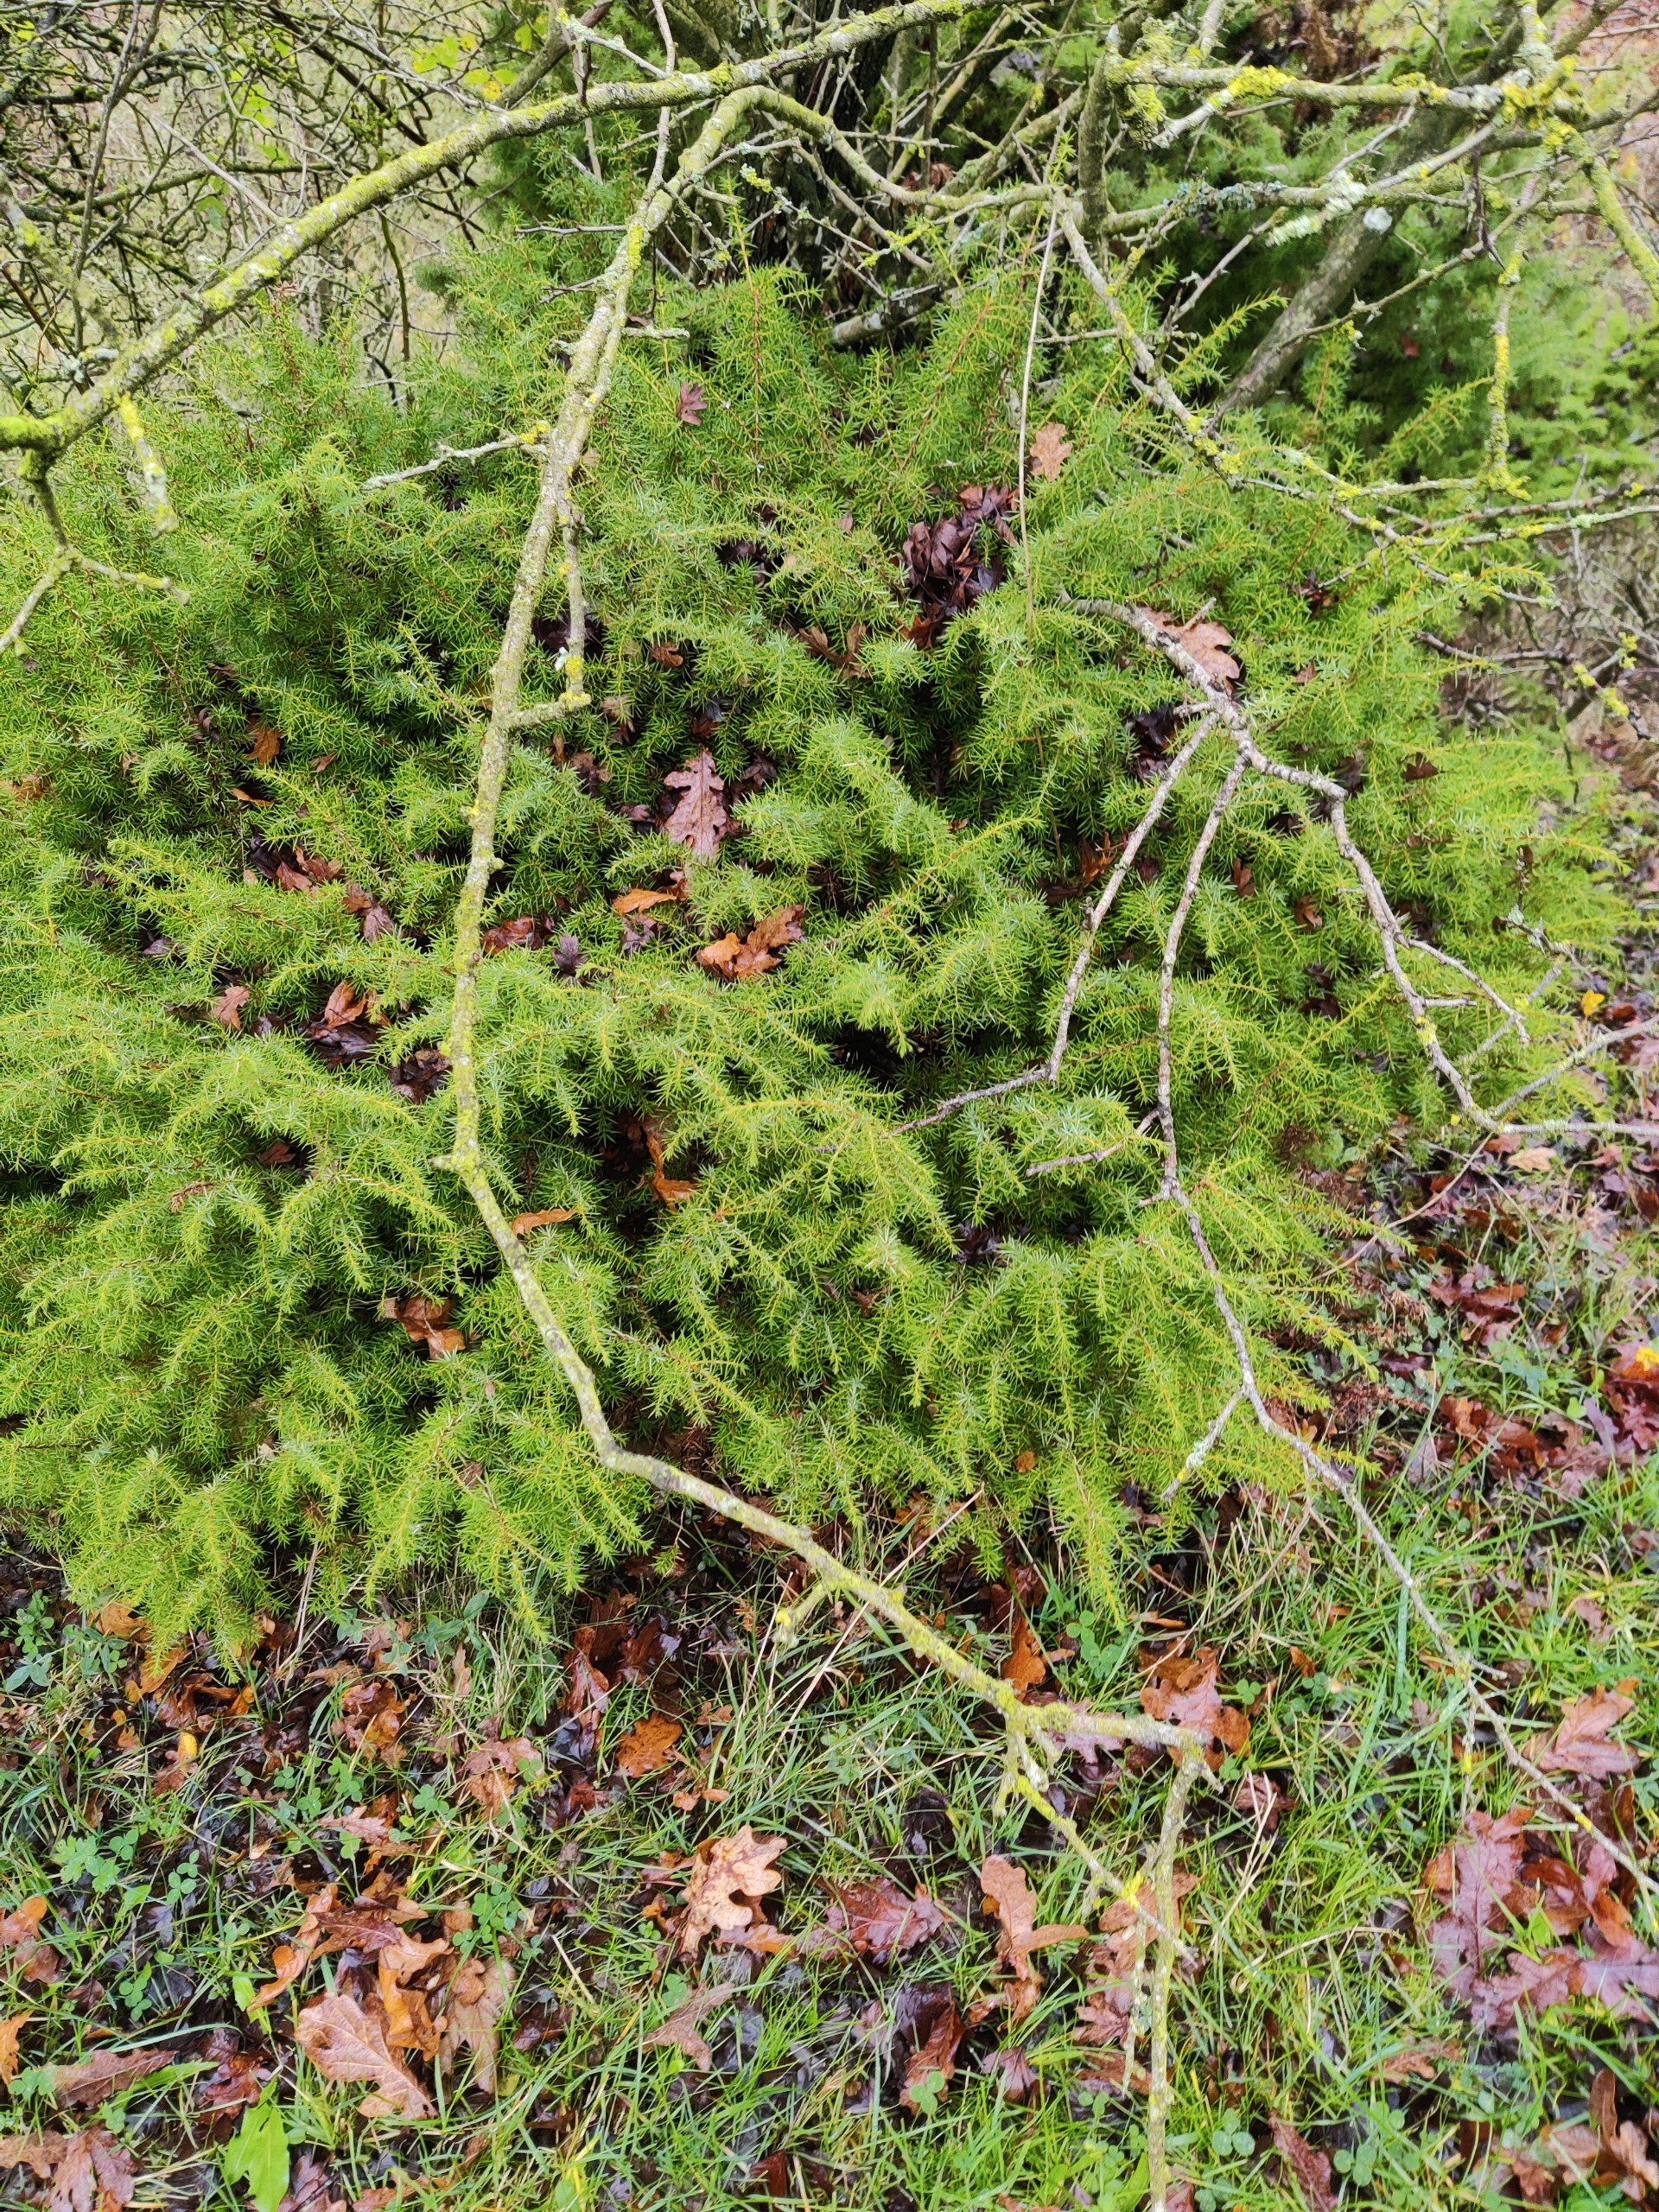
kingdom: Plantae
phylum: Tracheophyta
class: Pinopsida
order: Pinales
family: Cupressaceae
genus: Juniperus
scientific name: Juniperus communis
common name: Almindelig ene
